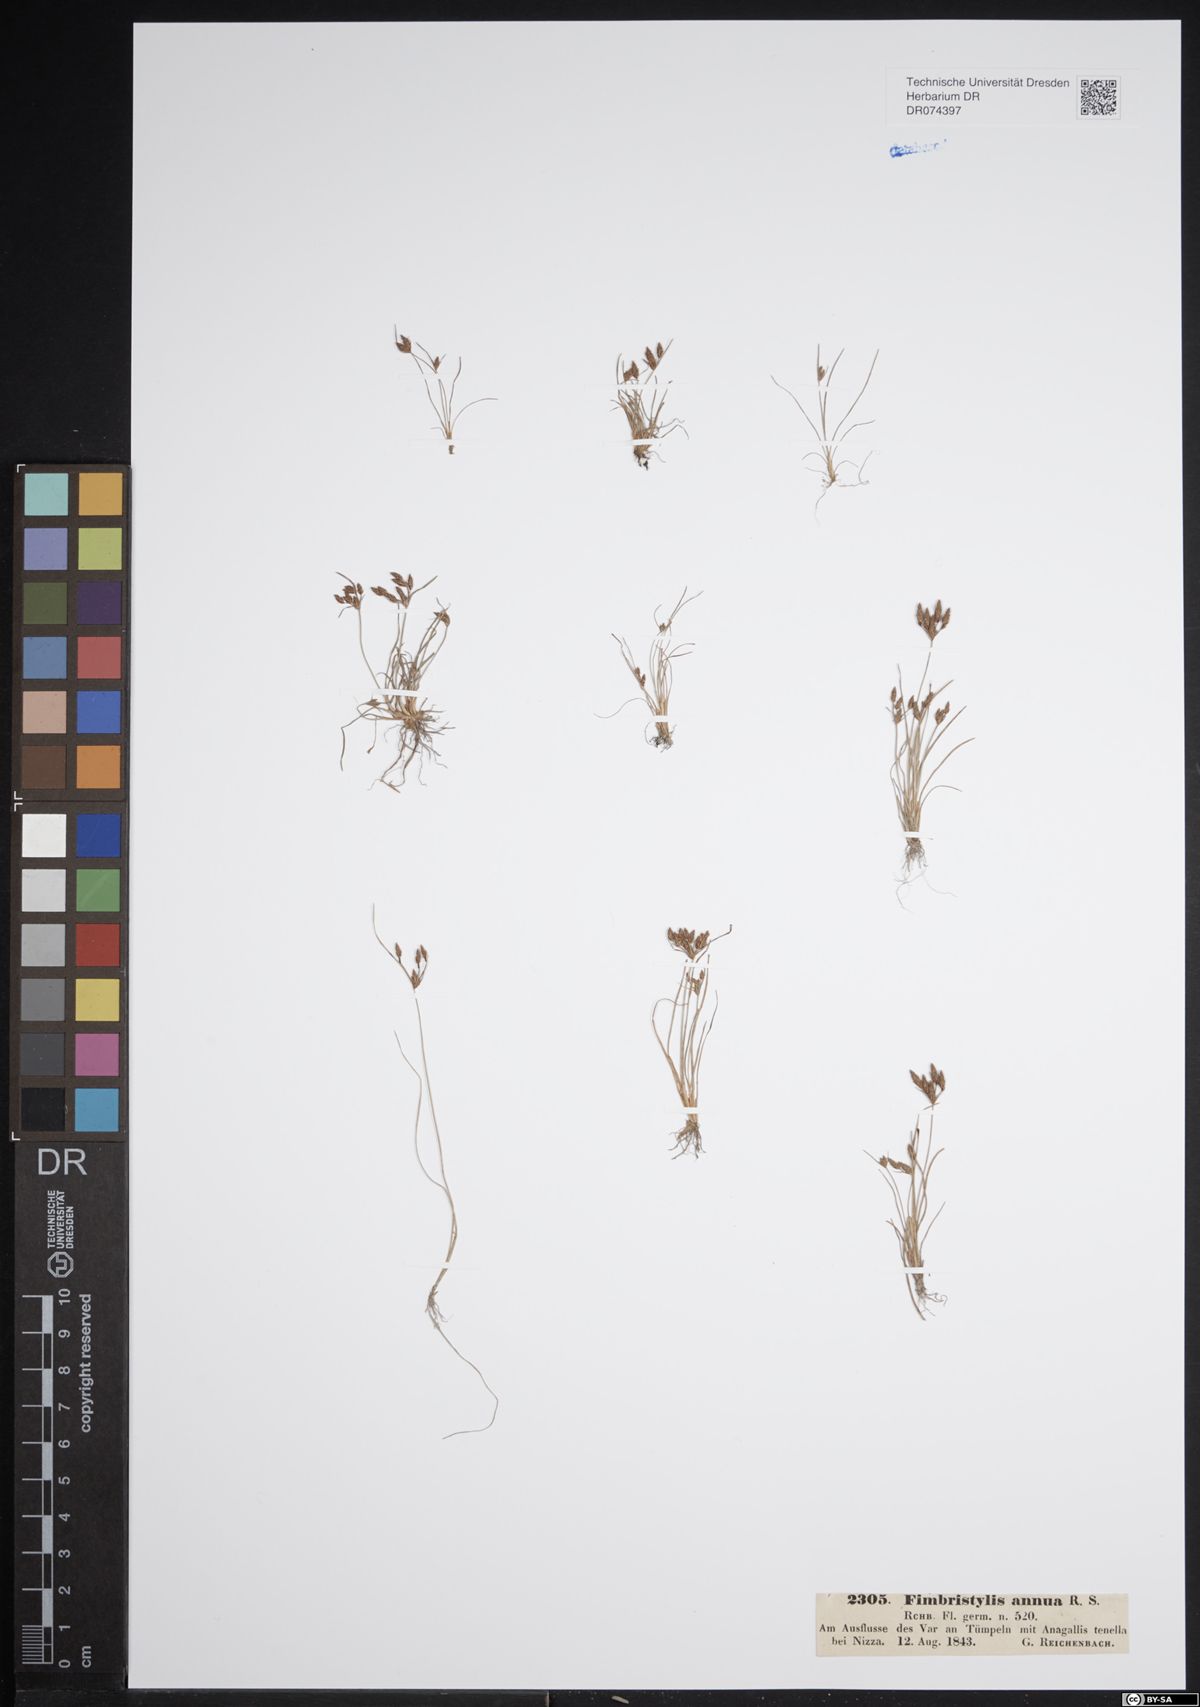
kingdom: Plantae
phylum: Tracheophyta
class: Liliopsida
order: Poales
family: Cyperaceae
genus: Fimbristylis
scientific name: Fimbristylis dichotoma
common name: Forked fimbry
